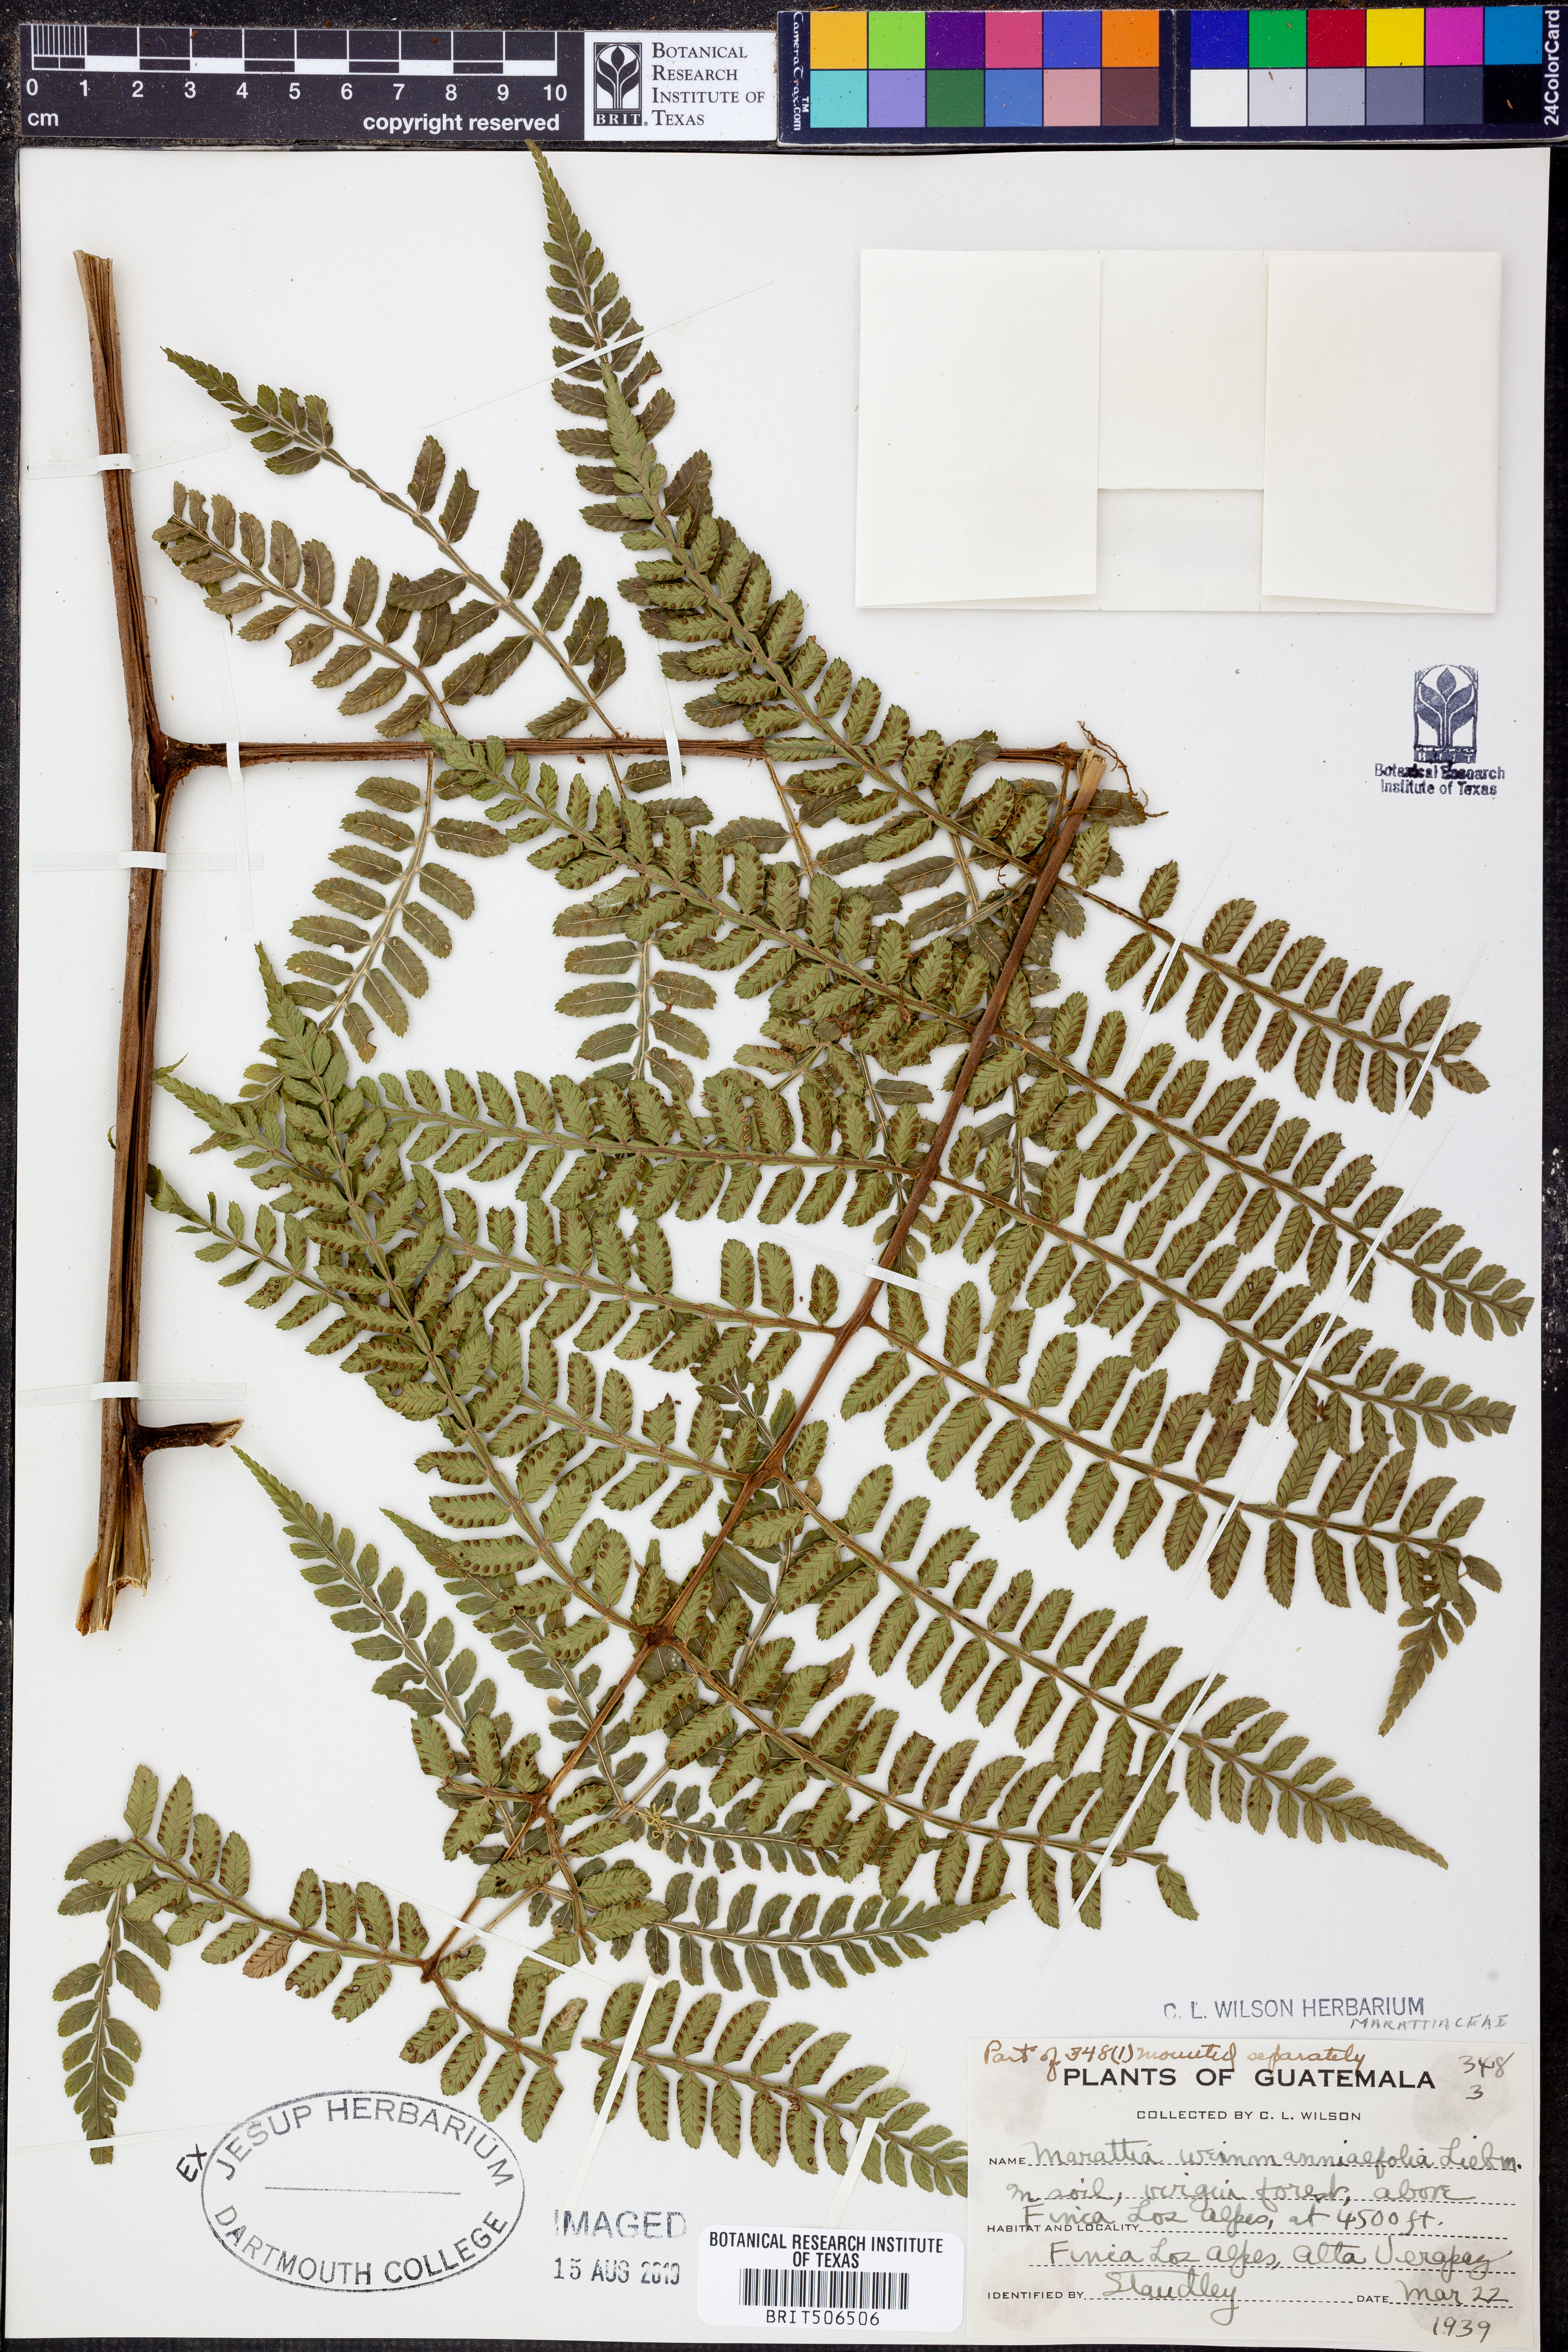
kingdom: Plantae
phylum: Tracheophyta
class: Polypodiopsida
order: Marattiales
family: Marattiaceae
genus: Marattia
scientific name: Marattia weinmanniifolia
